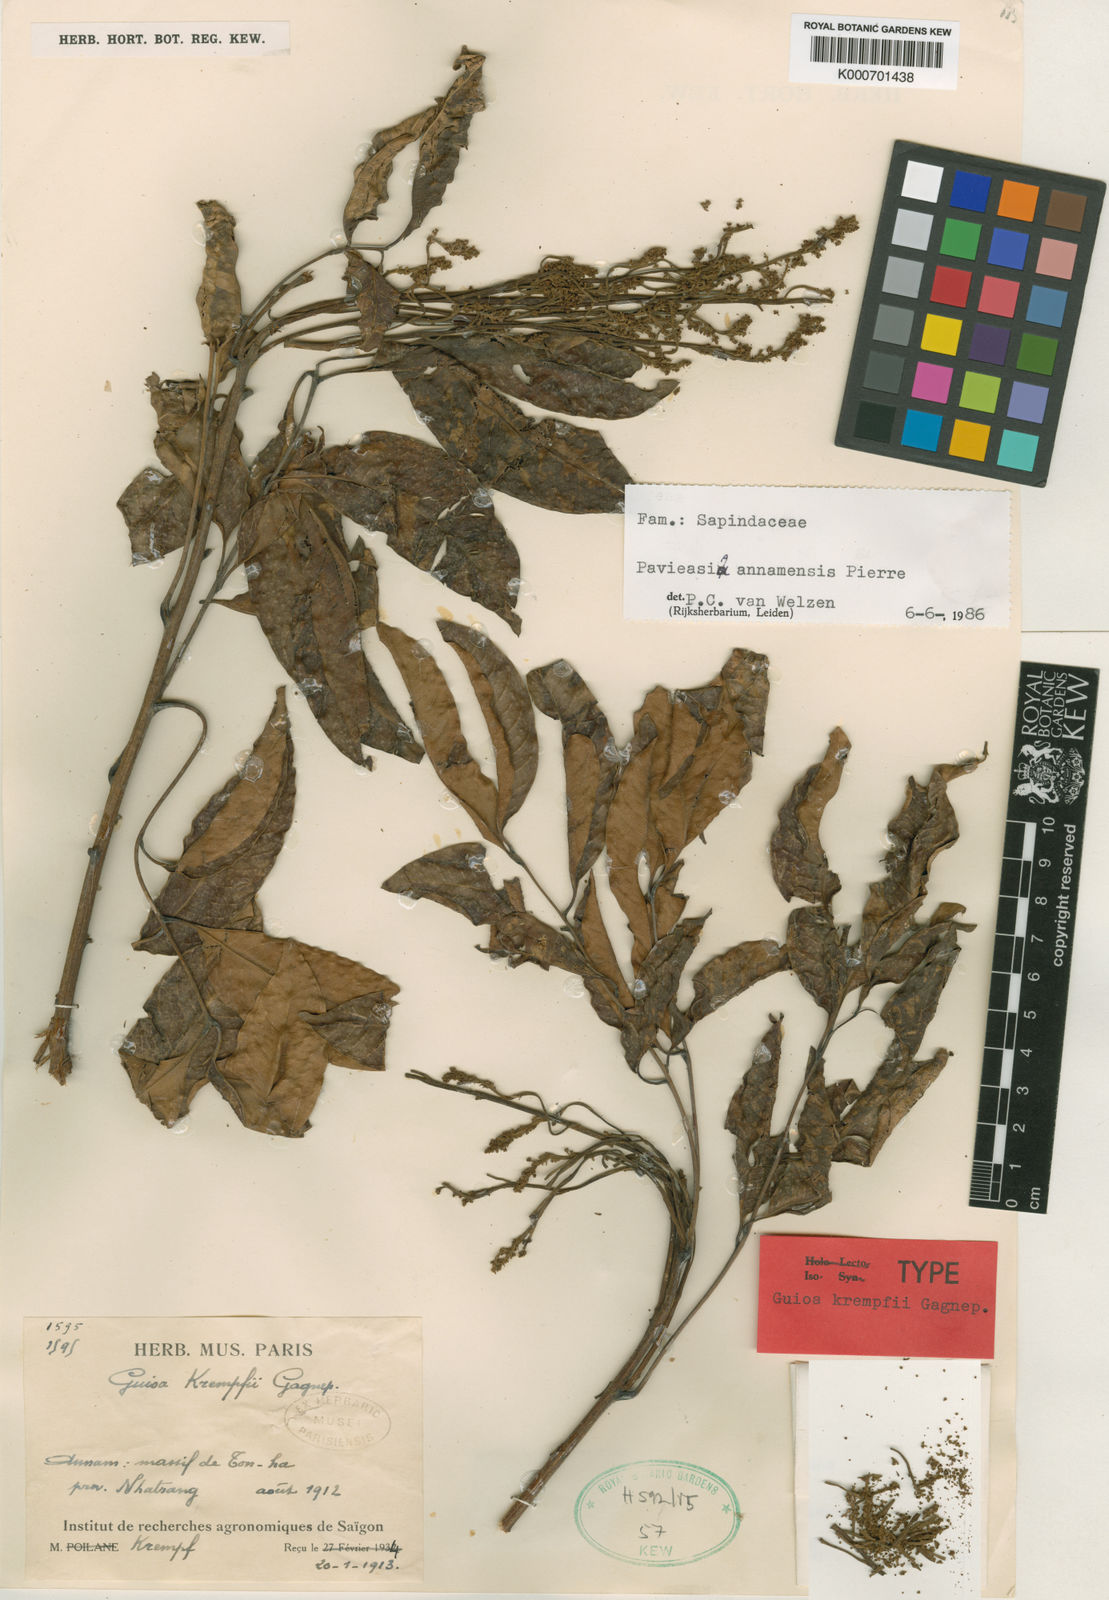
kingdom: Plantae
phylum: Tracheophyta
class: Magnoliopsida
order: Sapindales
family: Sapindaceae
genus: Pavieasia
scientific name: Pavieasia anamensis
